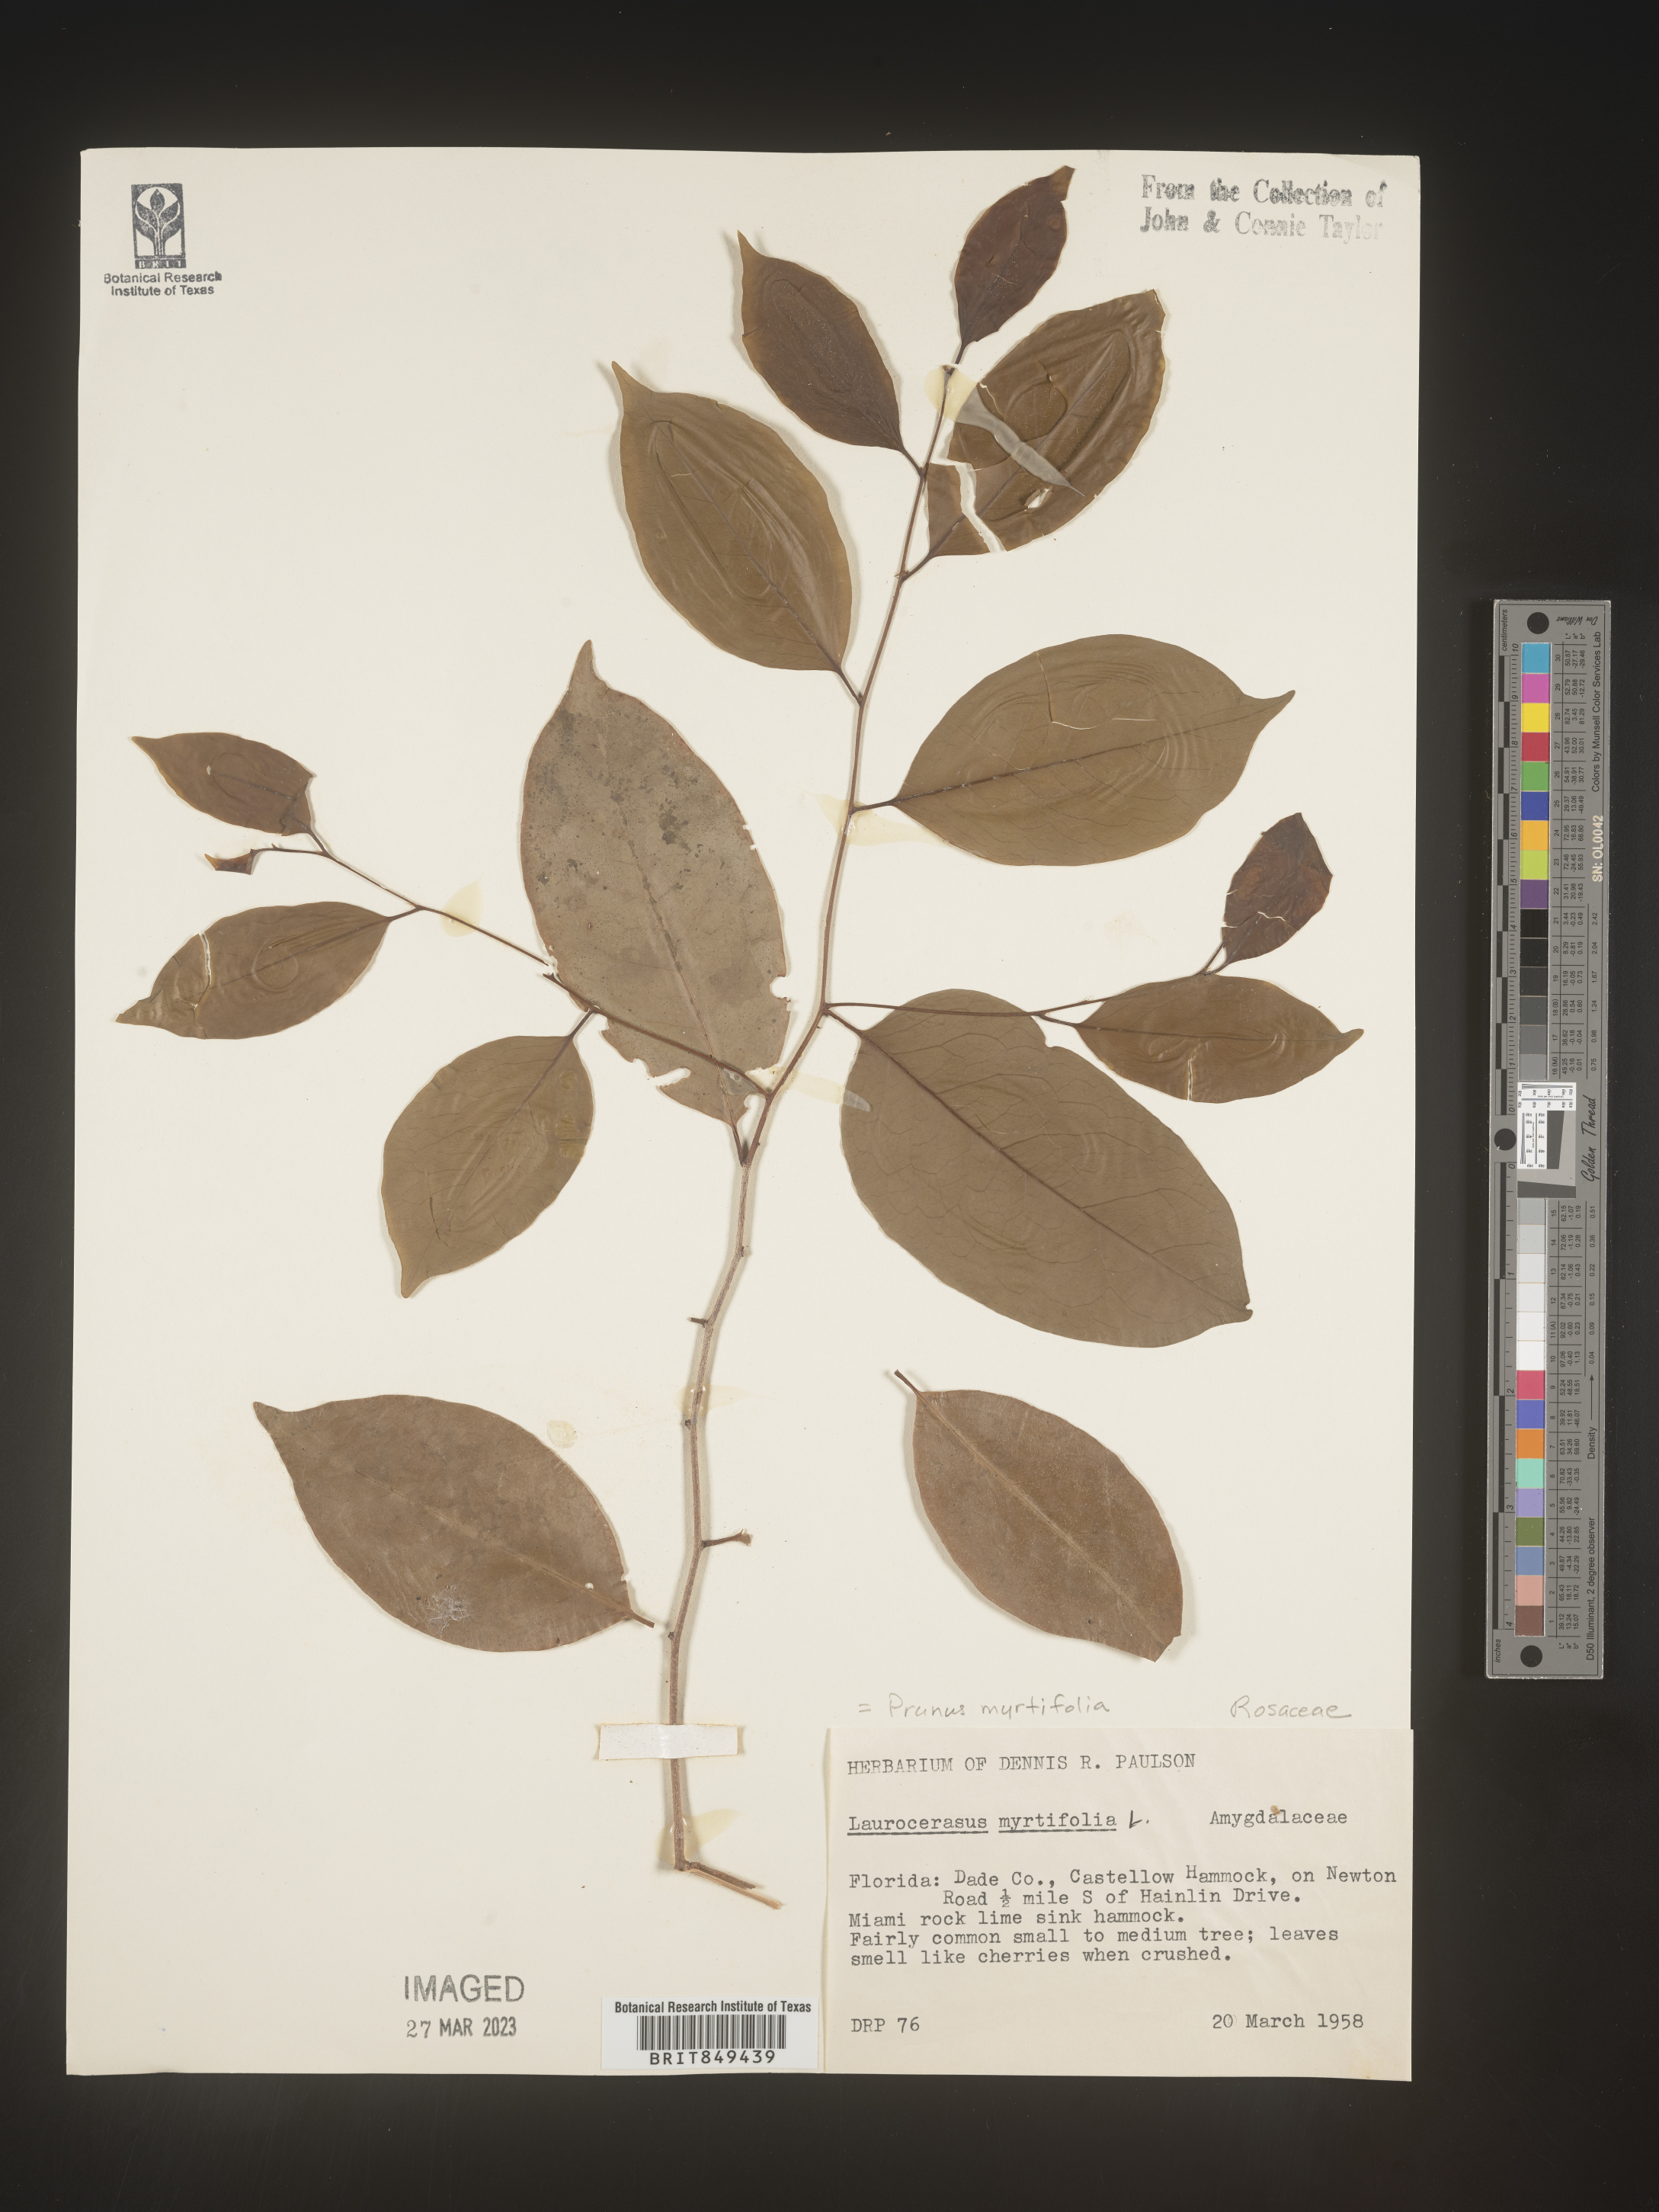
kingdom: Plantae
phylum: Tracheophyta
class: Magnoliopsida
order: Rosales
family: Rosaceae
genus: Prunus
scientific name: Prunus munsoniana
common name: Creek plum
